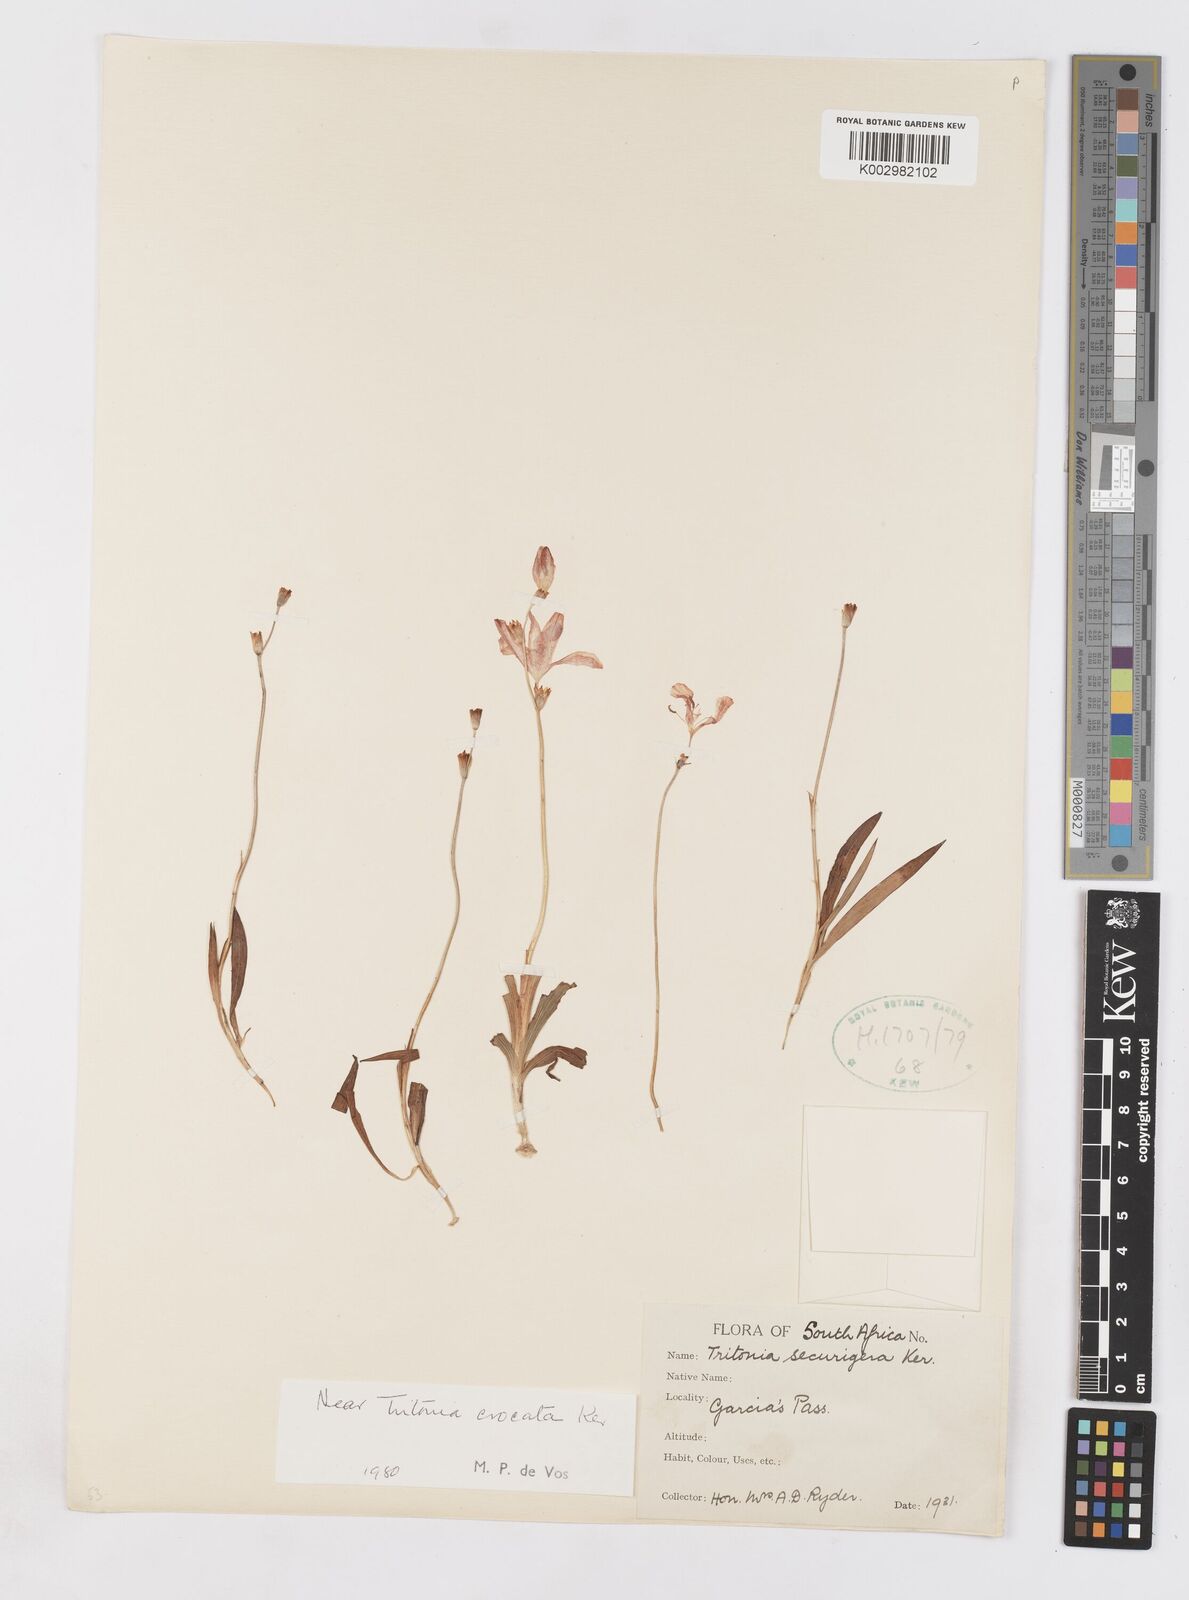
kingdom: Plantae
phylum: Tracheophyta
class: Liliopsida
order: Asparagales
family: Iridaceae
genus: Tritonia
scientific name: Tritonia crocata
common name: Flame-freesia
